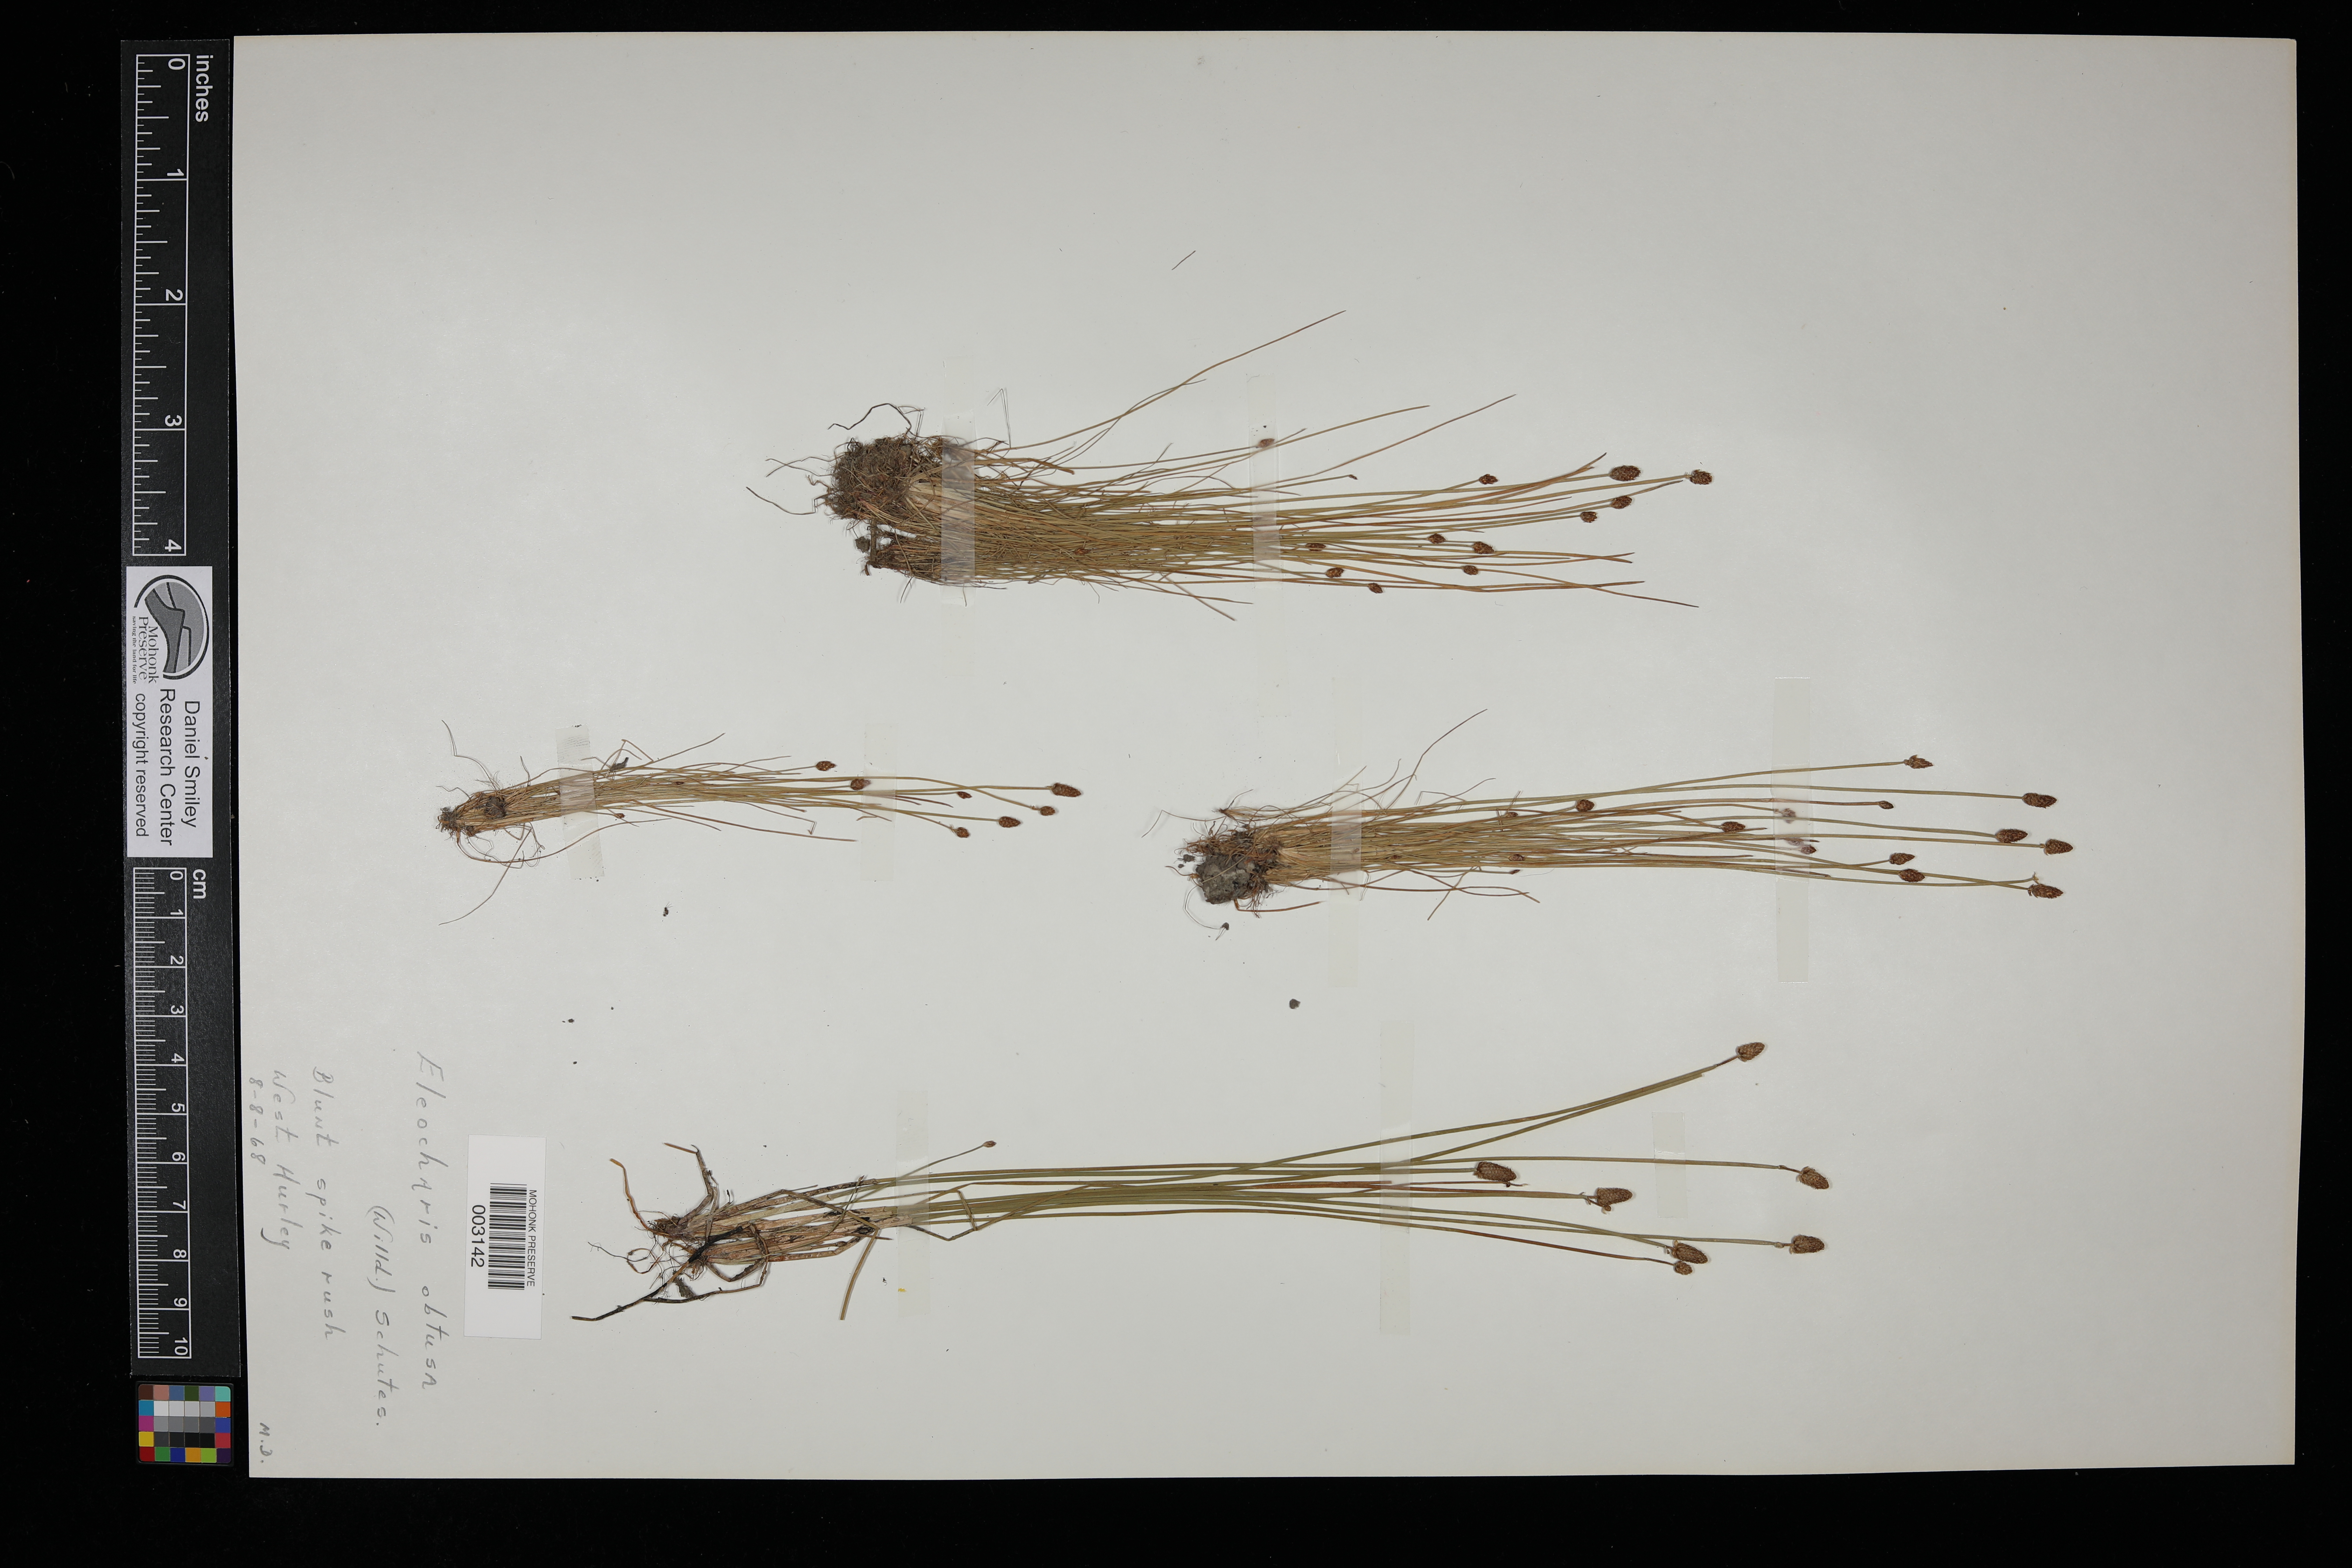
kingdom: Plantae
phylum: Tracheophyta
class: Liliopsida
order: Poales
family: Cyperaceae
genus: Eleocharis
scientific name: Eleocharis obtusa
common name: Blunt spikerush
